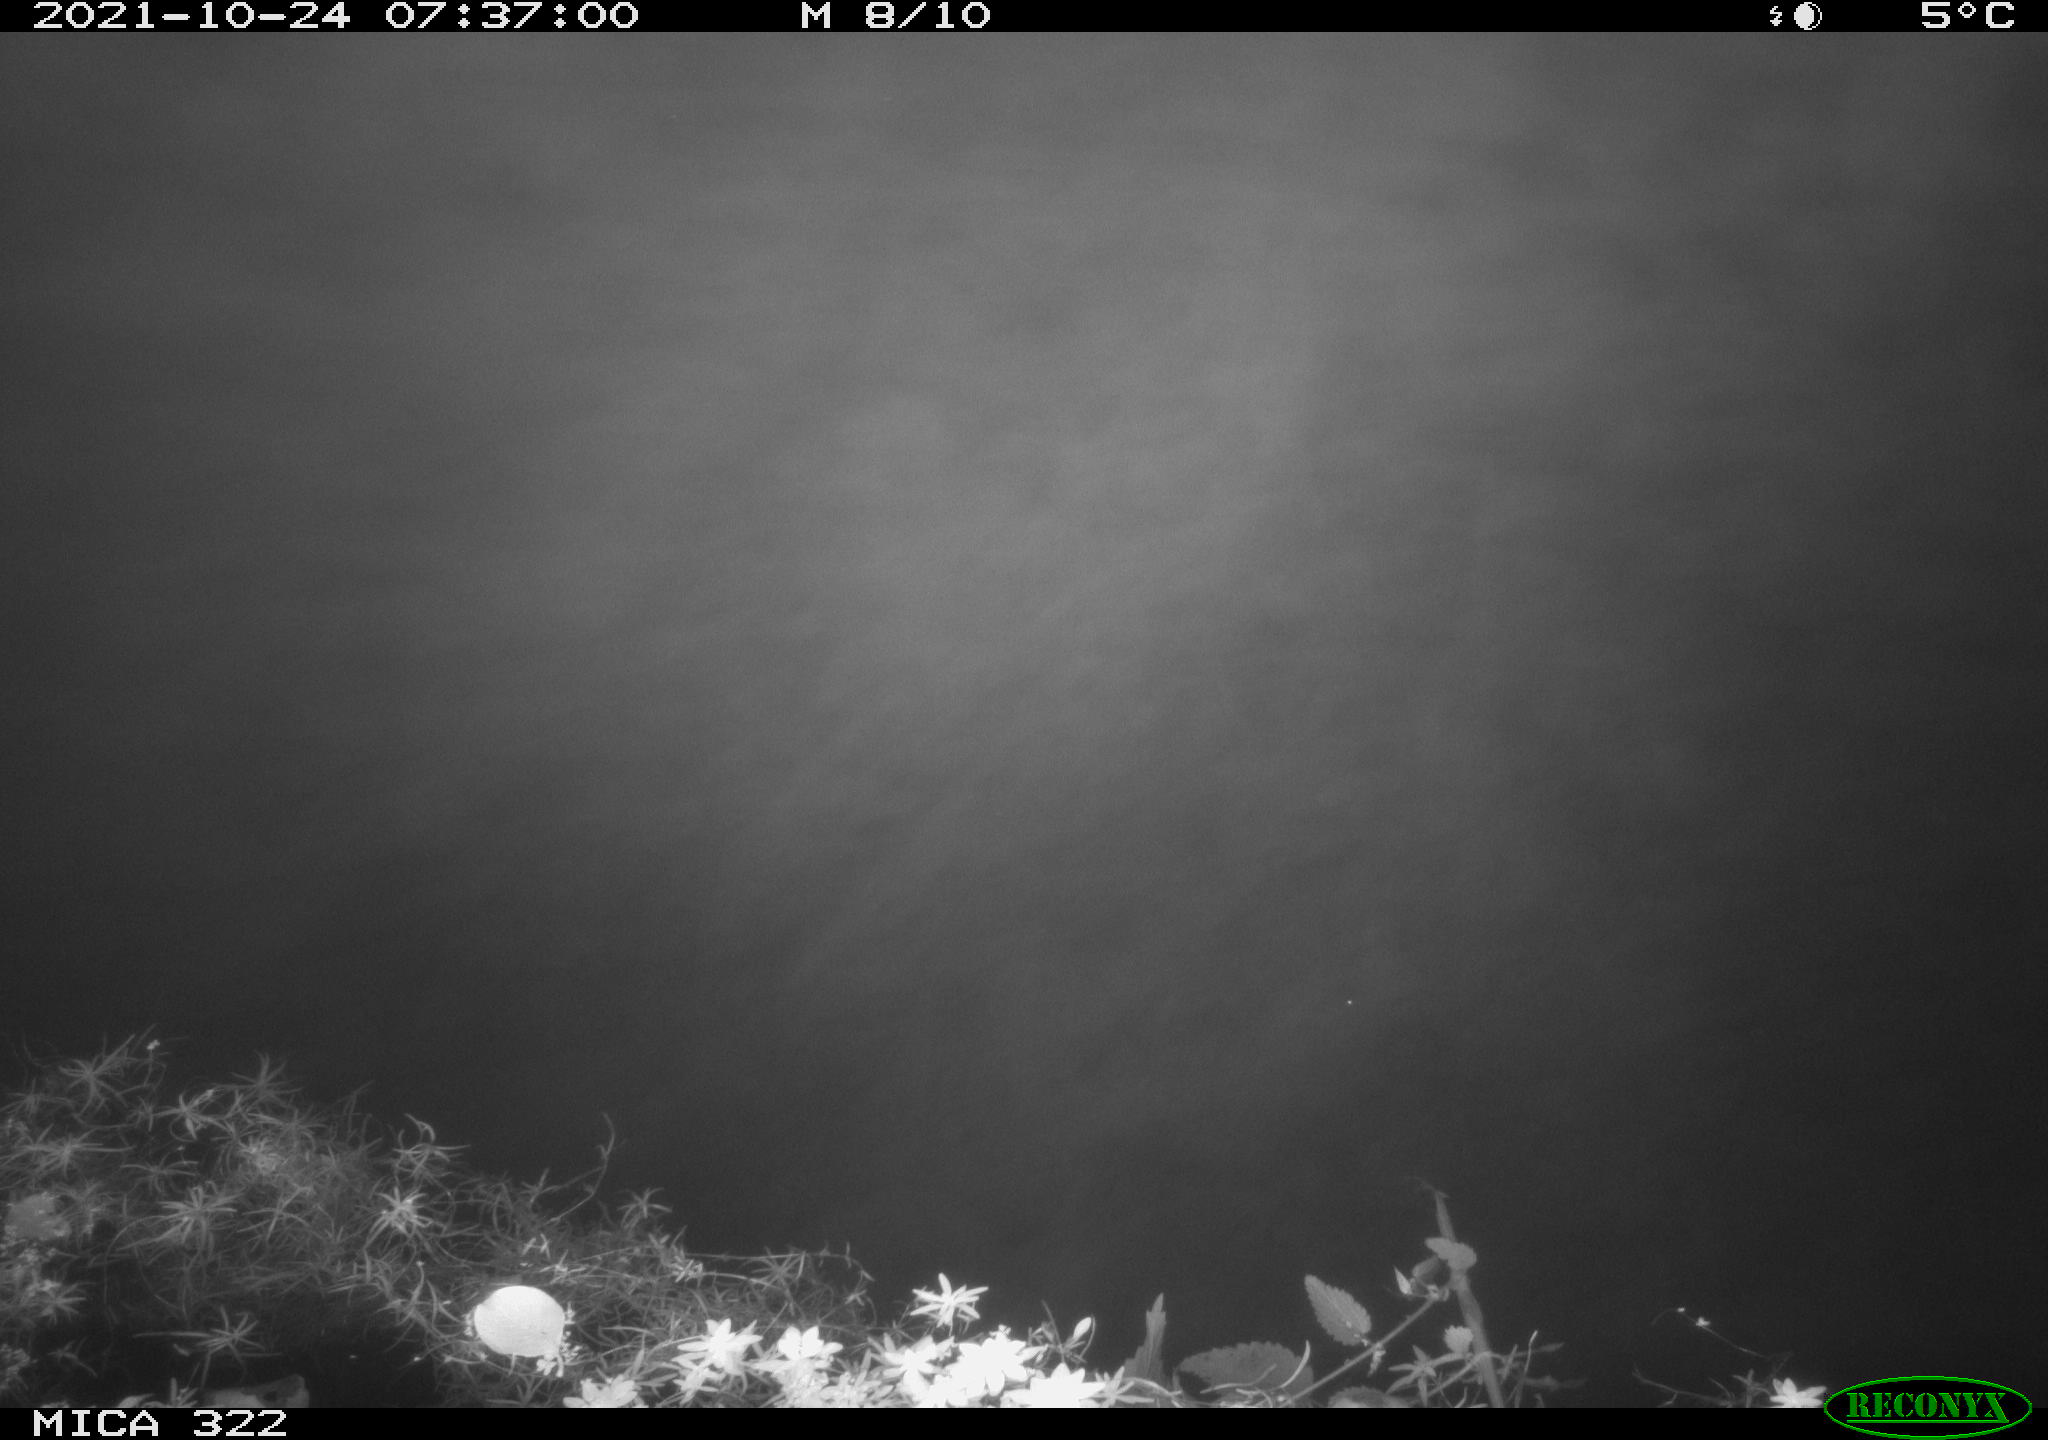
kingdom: Animalia
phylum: Chordata
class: Aves
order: Gruiformes
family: Rallidae
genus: Gallinula
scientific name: Gallinula chloropus
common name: Common moorhen
